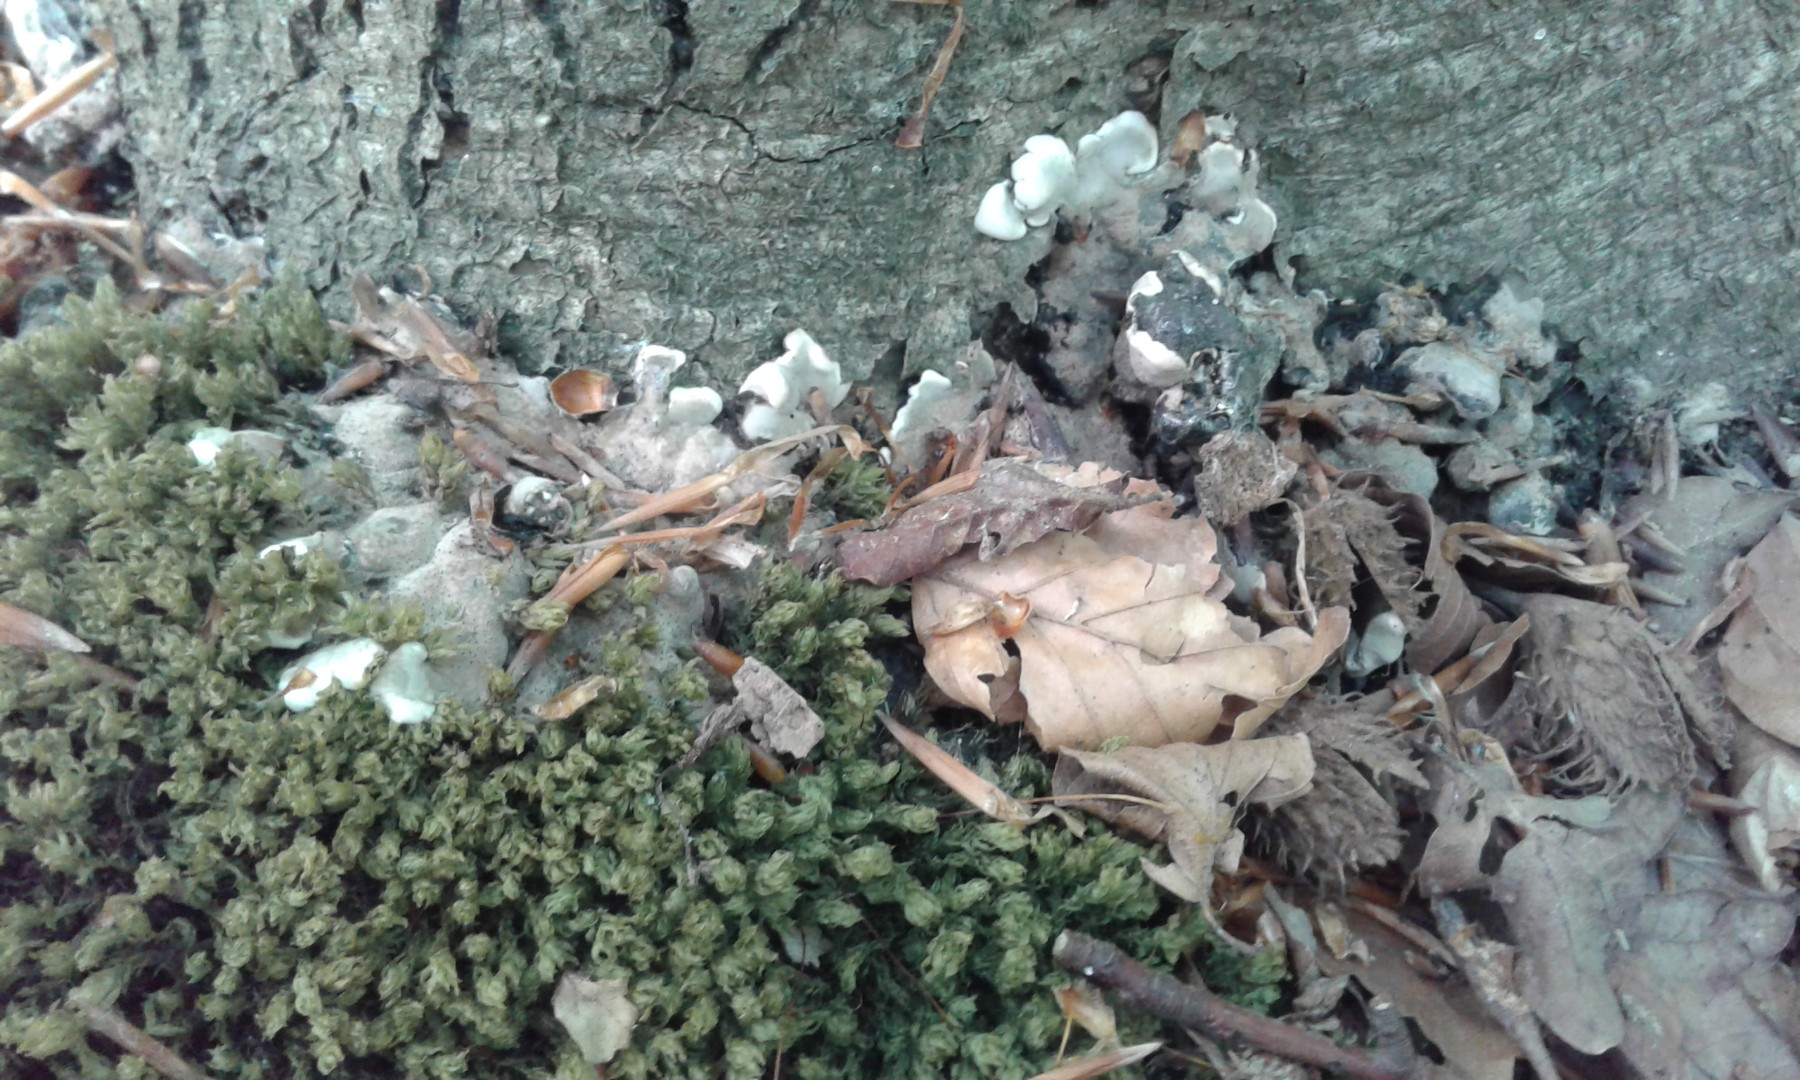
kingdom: Fungi
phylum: Ascomycota
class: Sordariomycetes
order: Xylariales
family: Xylariaceae
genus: Kretzschmaria
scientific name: Kretzschmaria deusta
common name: stor kulsvamp
